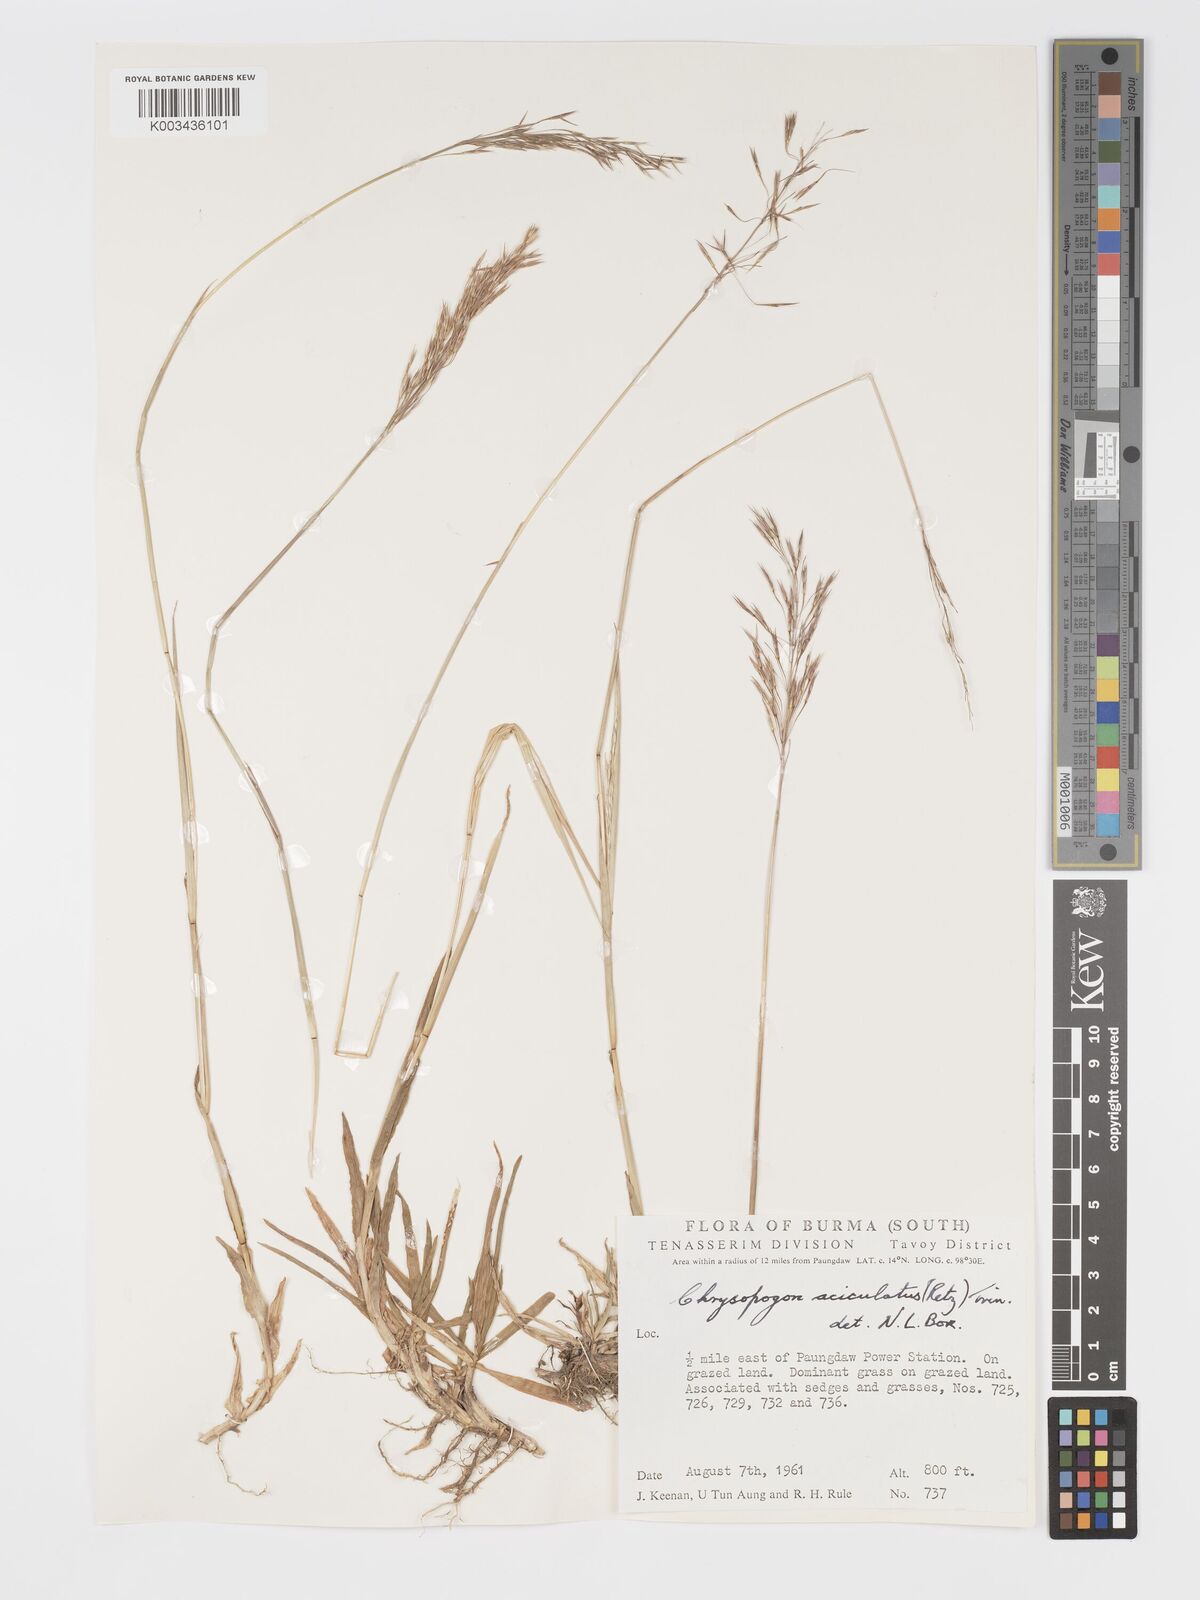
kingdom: Plantae
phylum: Tracheophyta
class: Liliopsida
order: Poales
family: Poaceae
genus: Chrysopogon
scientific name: Chrysopogon aciculatus
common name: Pilipiliula
